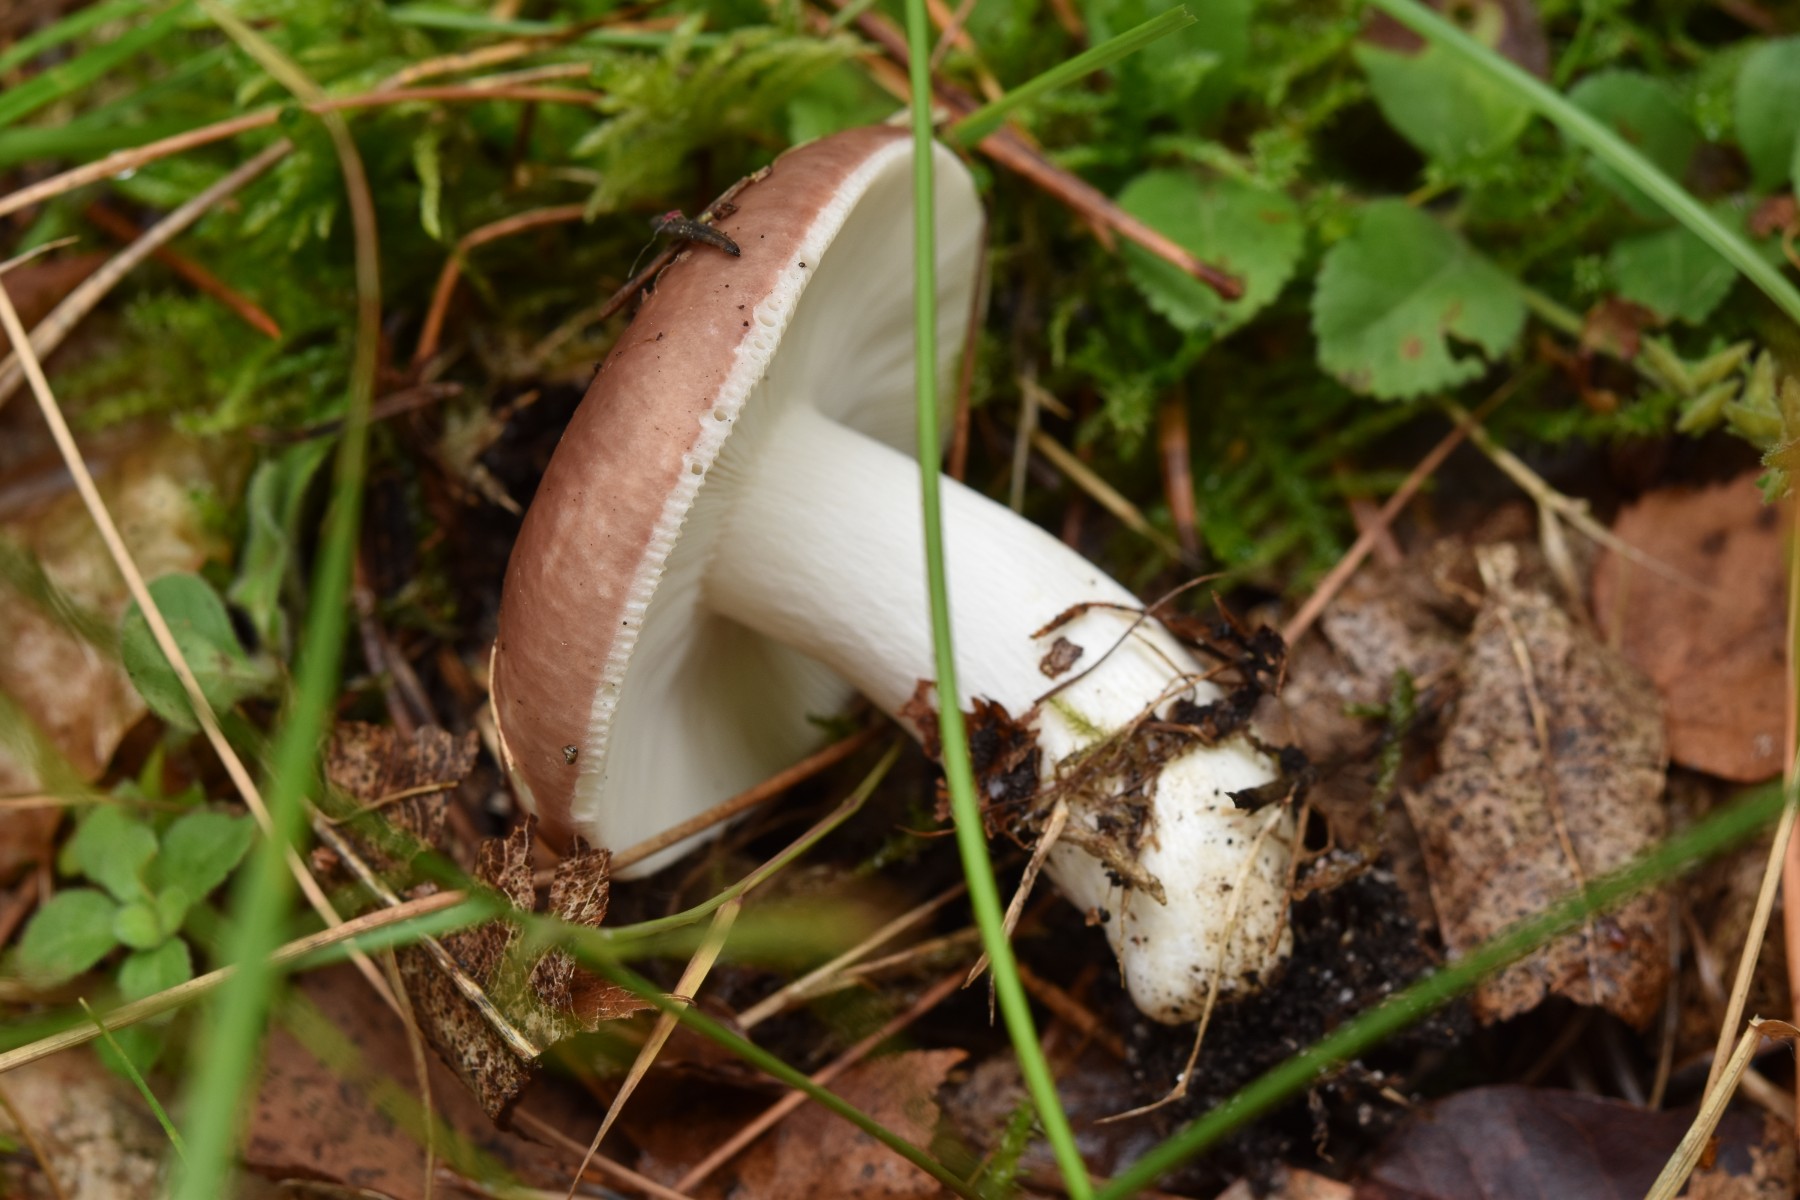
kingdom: Fungi
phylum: Basidiomycota
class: Agaricomycetes
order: Russulales
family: Russulaceae
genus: Russula
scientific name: Russula vesca
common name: spiselig skørhat
